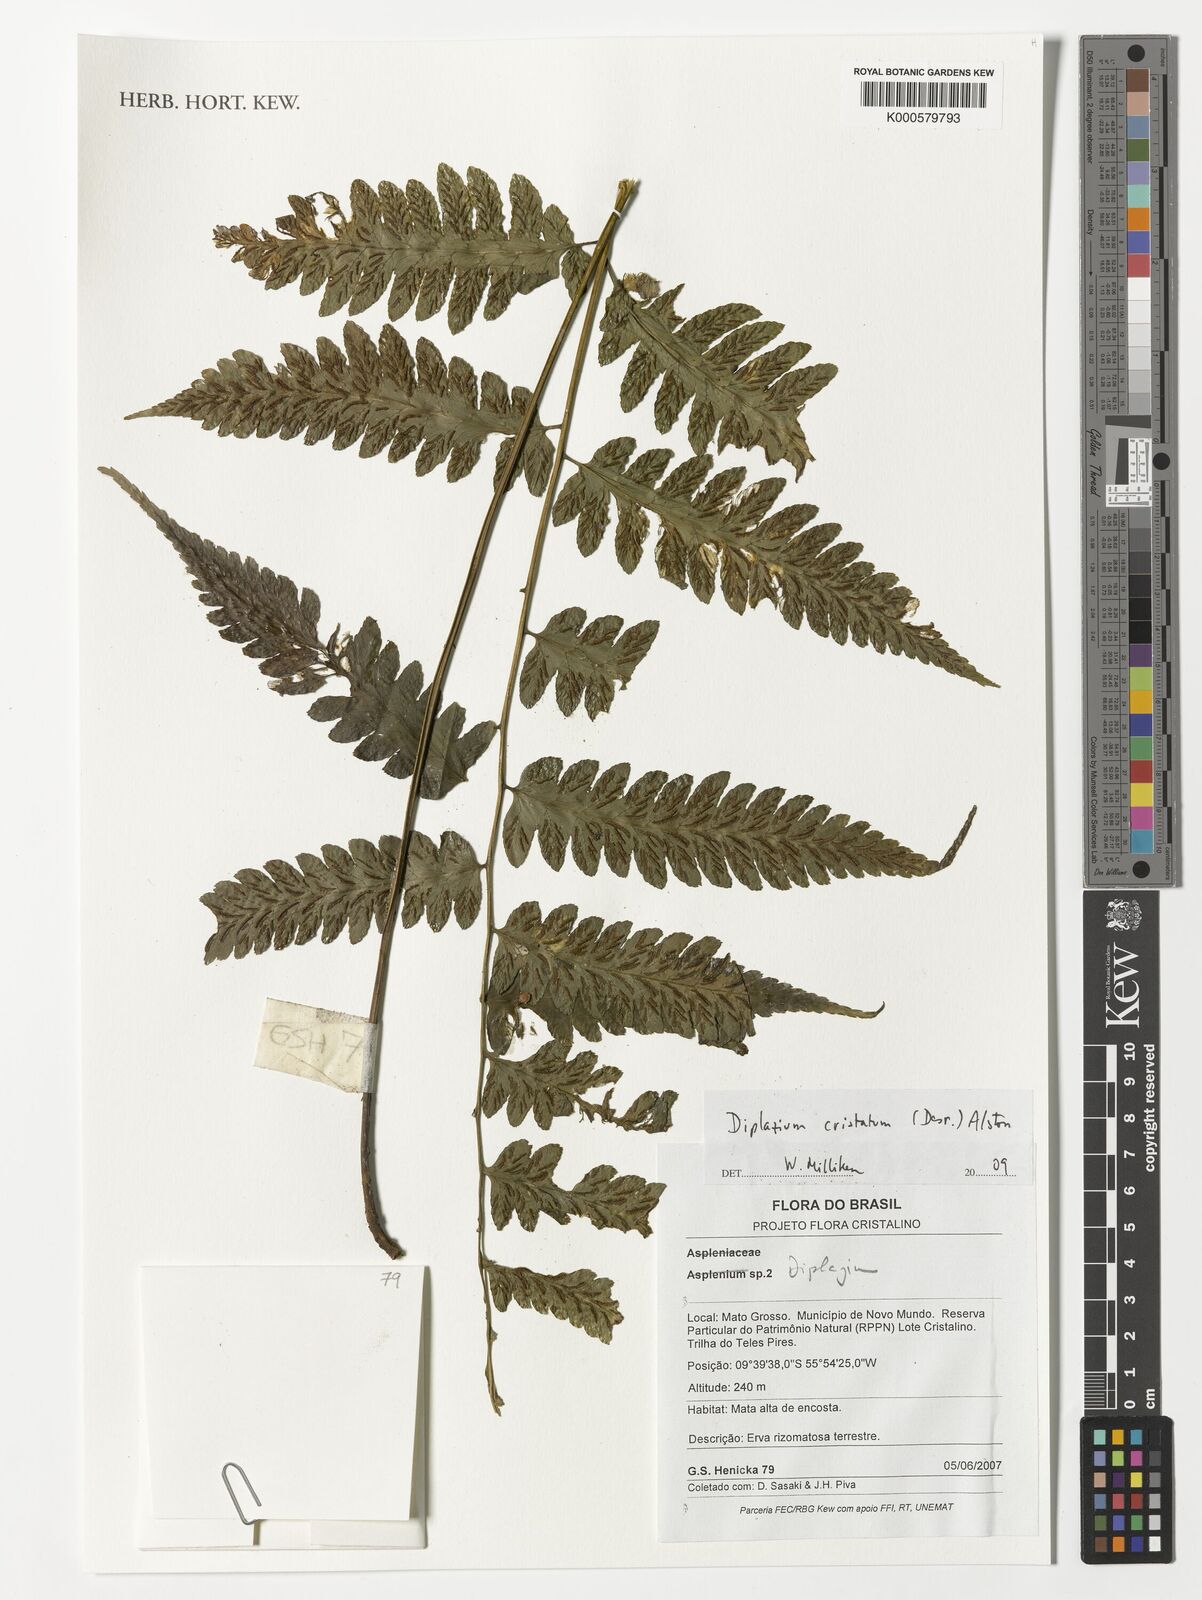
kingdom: Plantae
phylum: Tracheophyta
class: Polypodiopsida
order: Polypodiales
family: Athyriaceae
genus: Diplazium
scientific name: Diplazium cristatum
